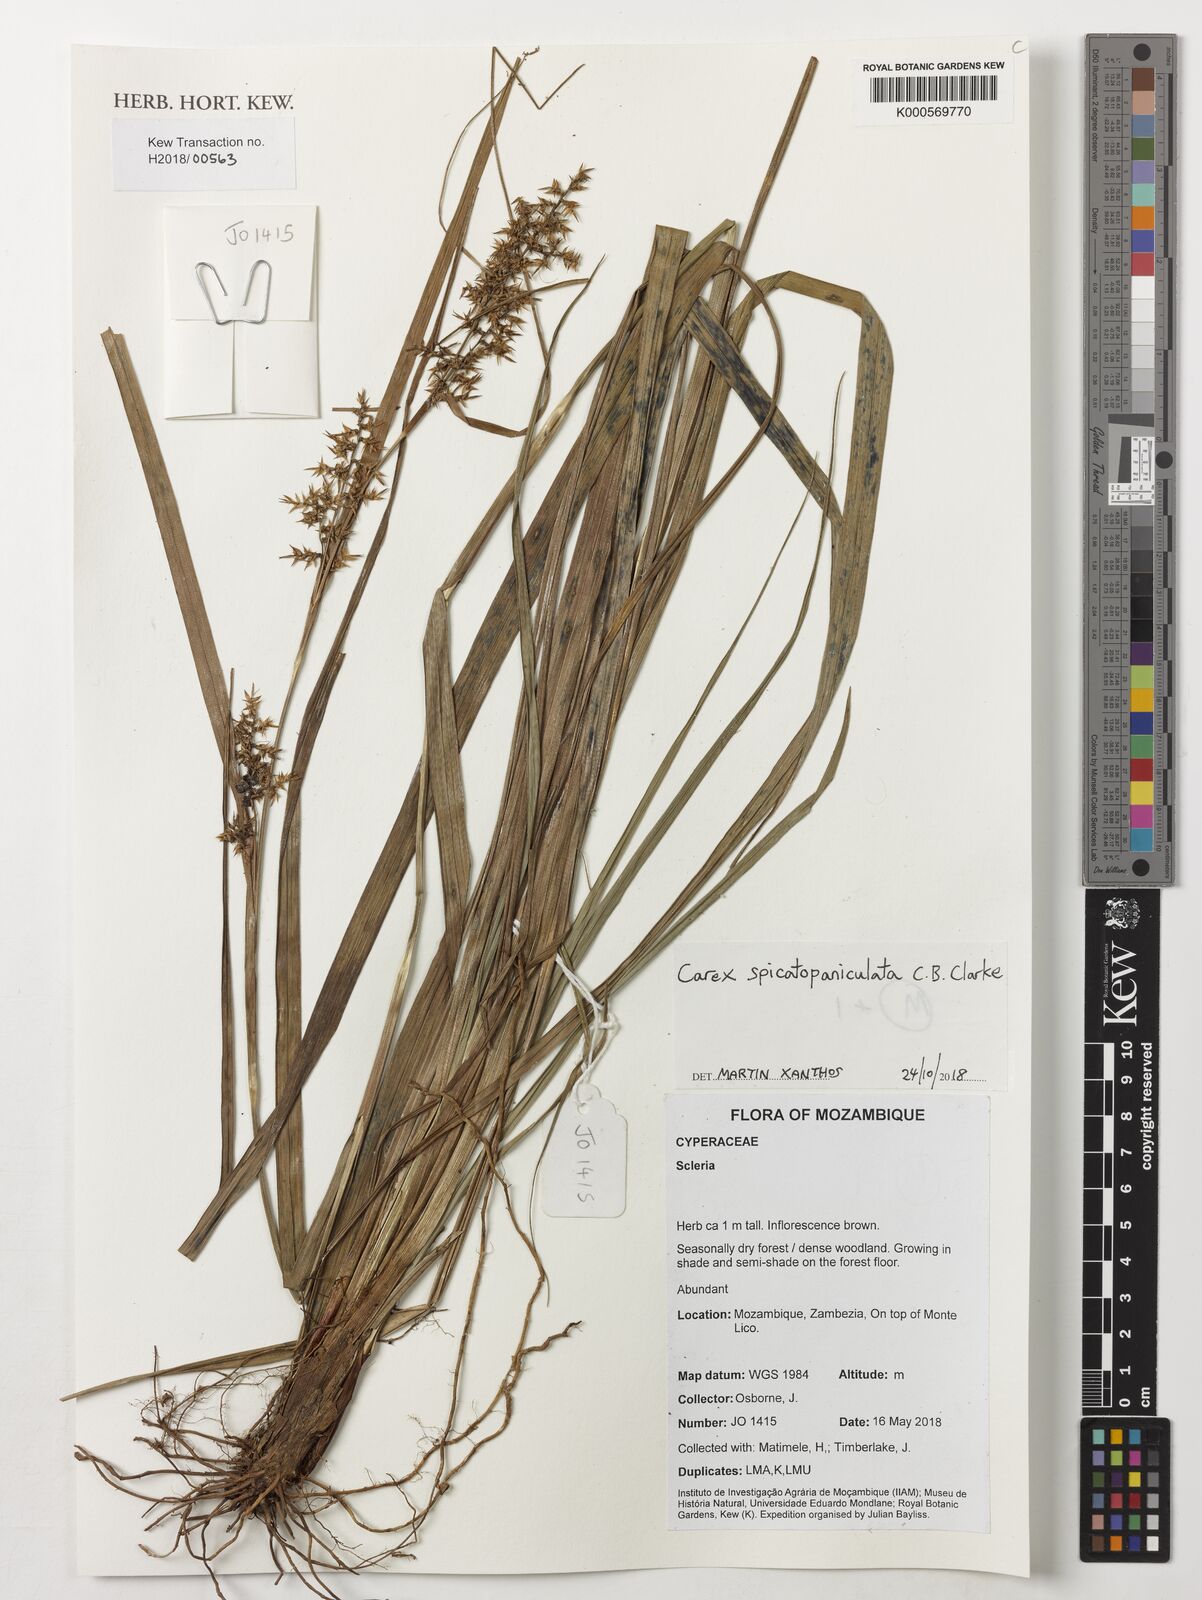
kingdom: Plantae
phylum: Tracheophyta
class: Liliopsida
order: Poales
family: Cyperaceae
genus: Carex
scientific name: Carex spicatopaniculata
